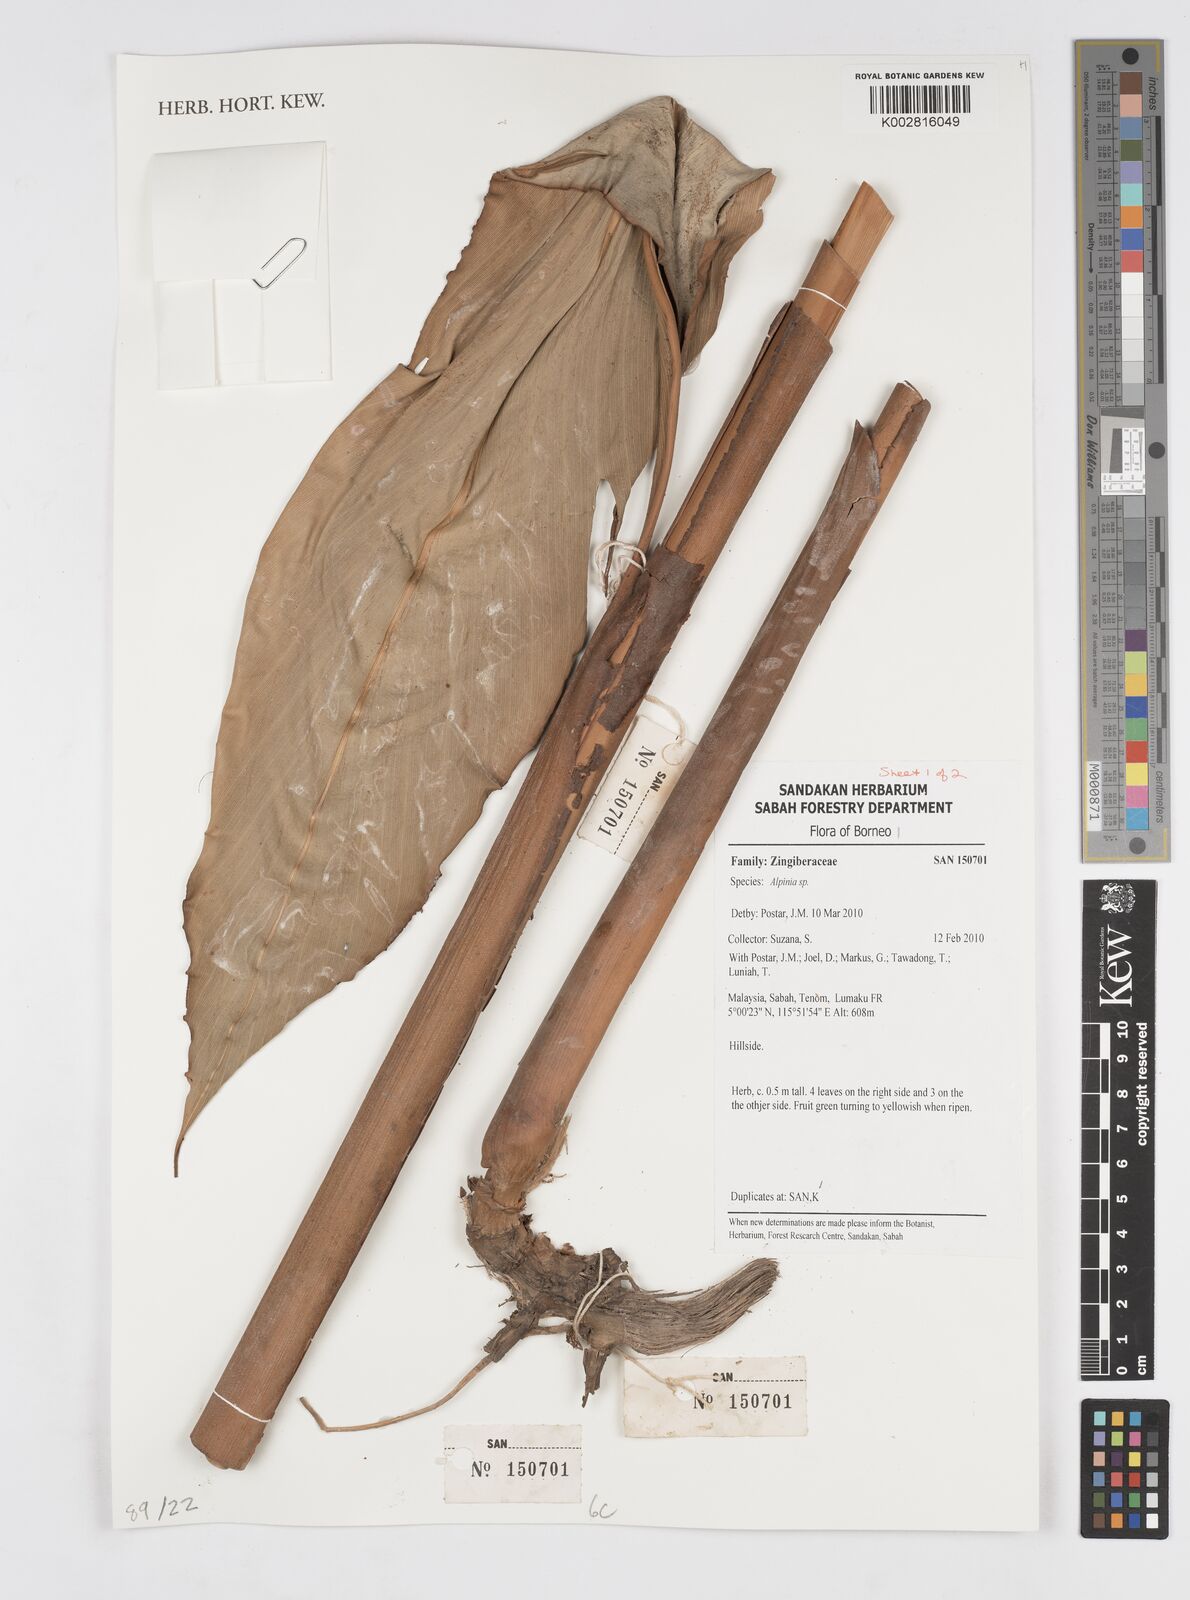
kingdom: Plantae
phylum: Tracheophyta
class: Liliopsida
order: Zingiberales
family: Zingiberaceae
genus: Alpinia
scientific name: Alpinia
